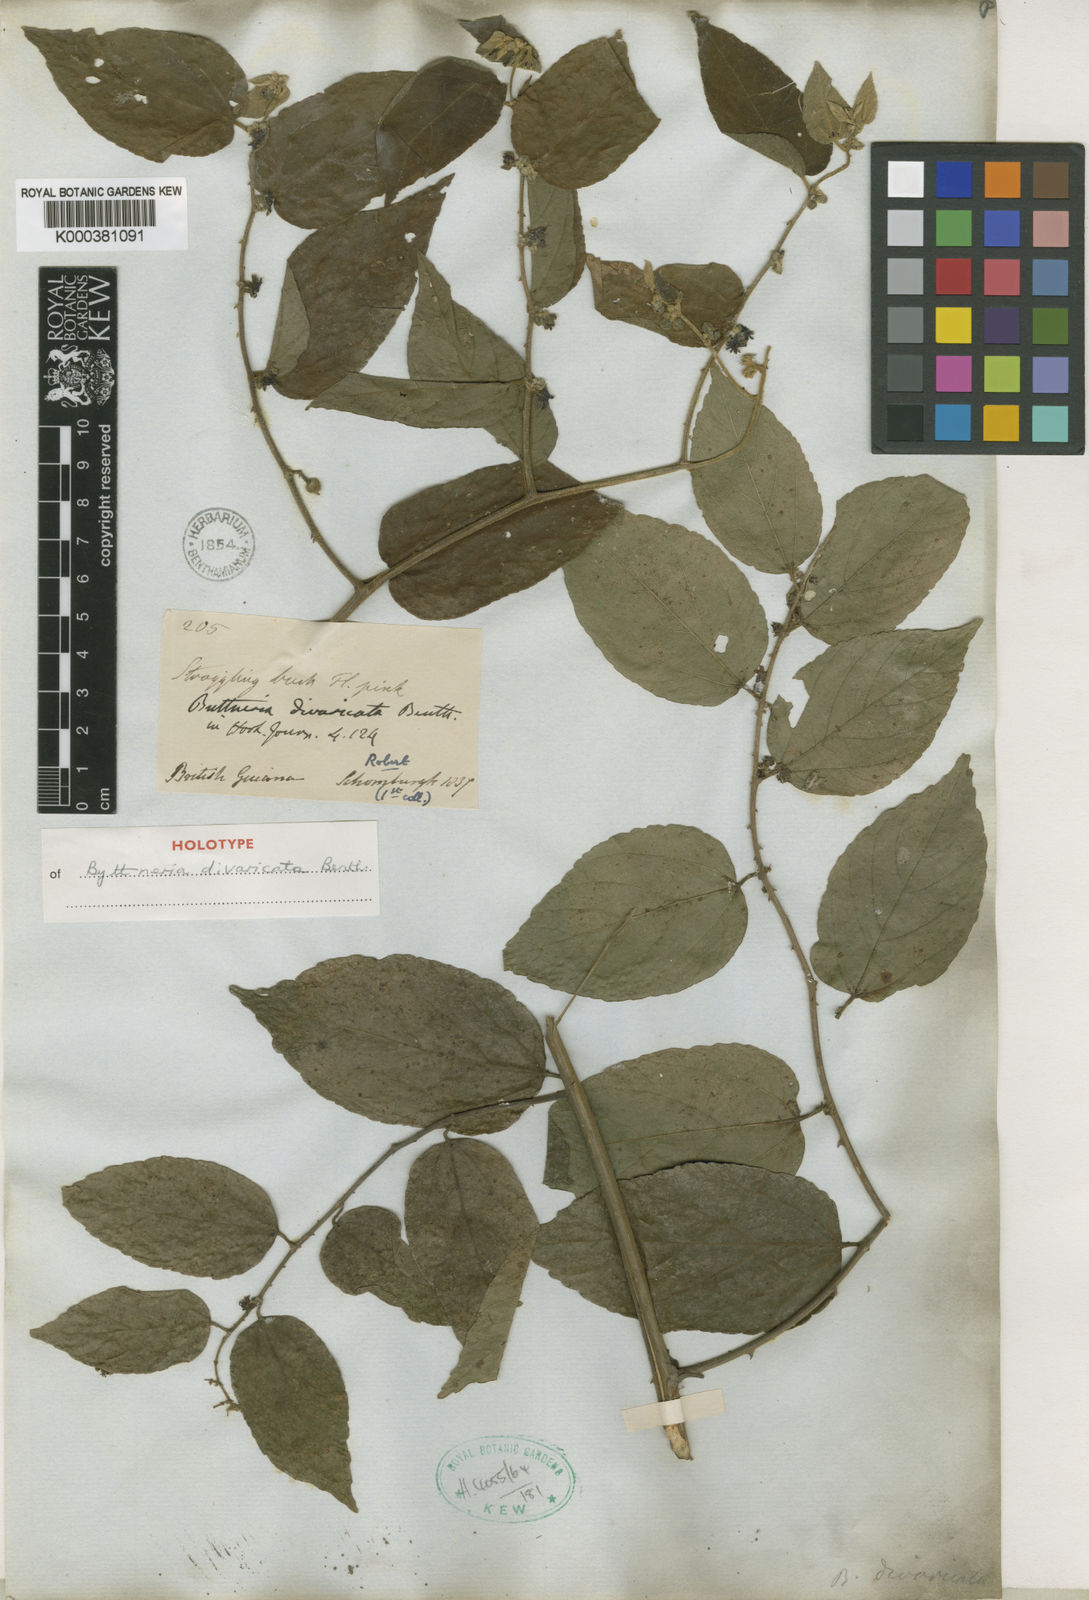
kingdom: Plantae
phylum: Tracheophyta
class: Magnoliopsida
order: Malvales
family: Malvaceae
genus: Byttneria
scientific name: Byttneria divaricata
